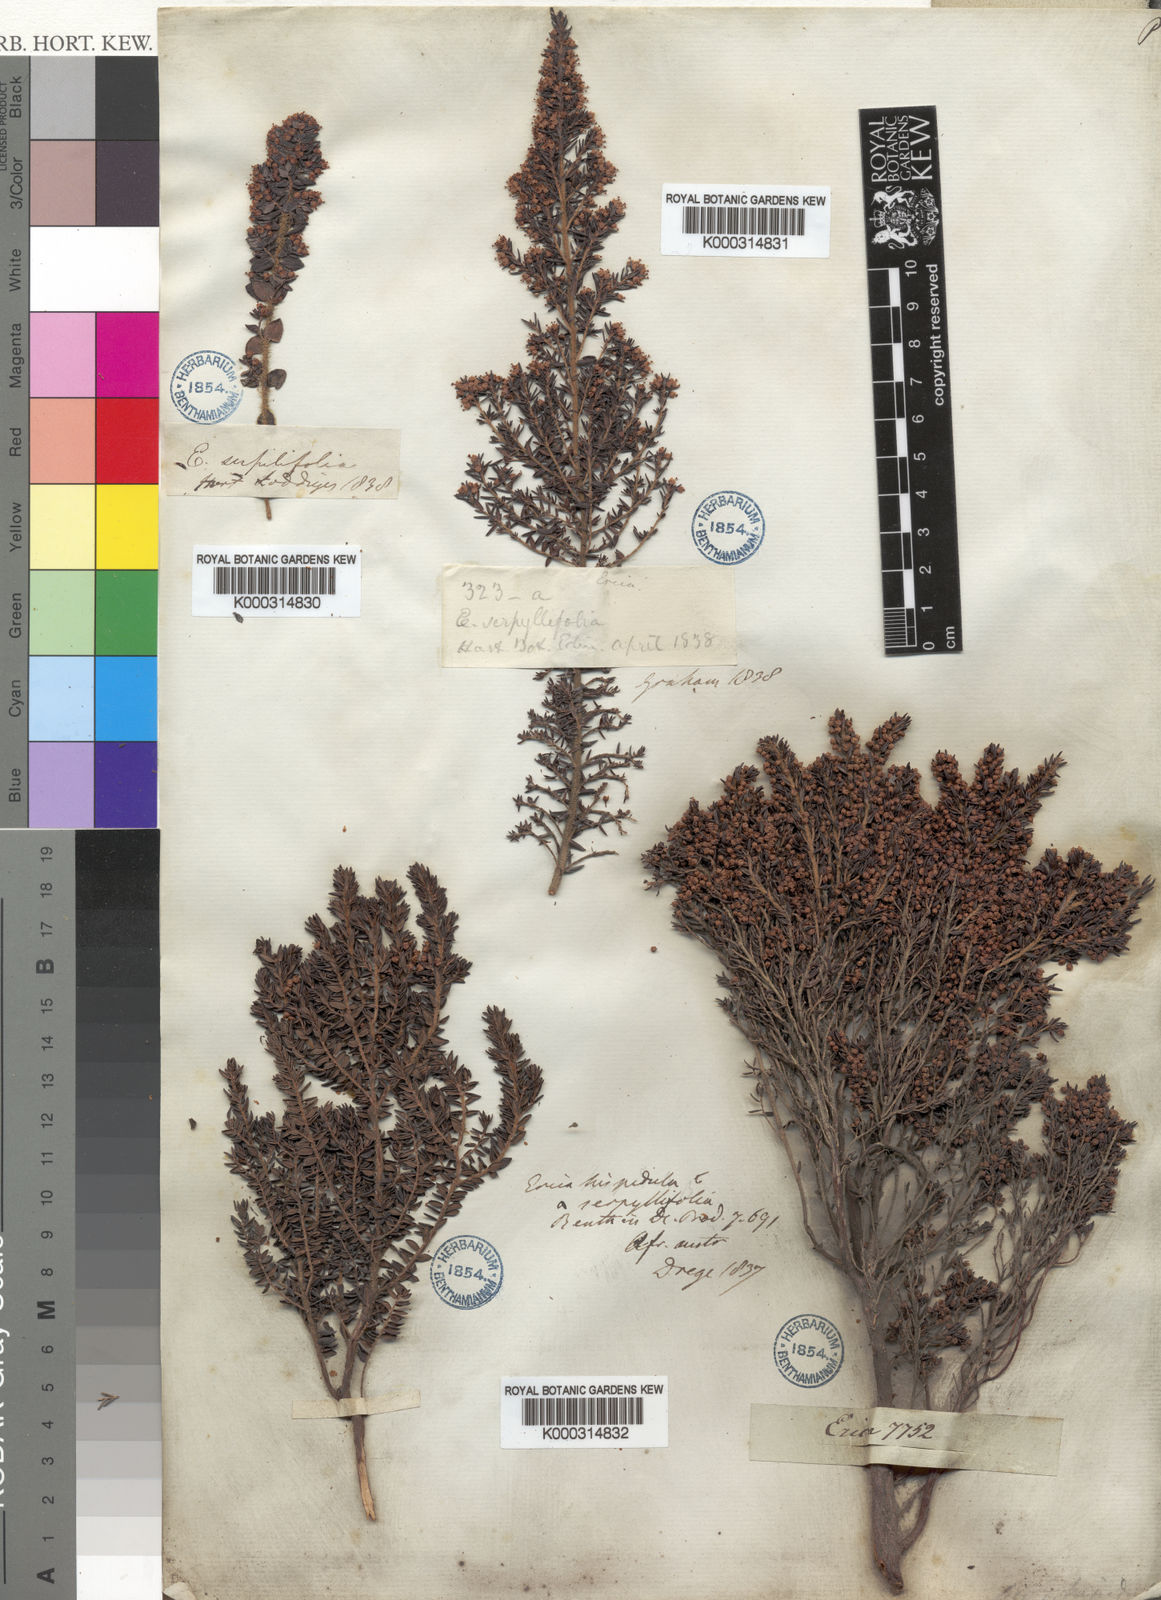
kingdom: Plantae
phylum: Tracheophyta
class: Magnoliopsida
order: Ericales
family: Ericaceae
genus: Erica
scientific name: Erica hispidula
